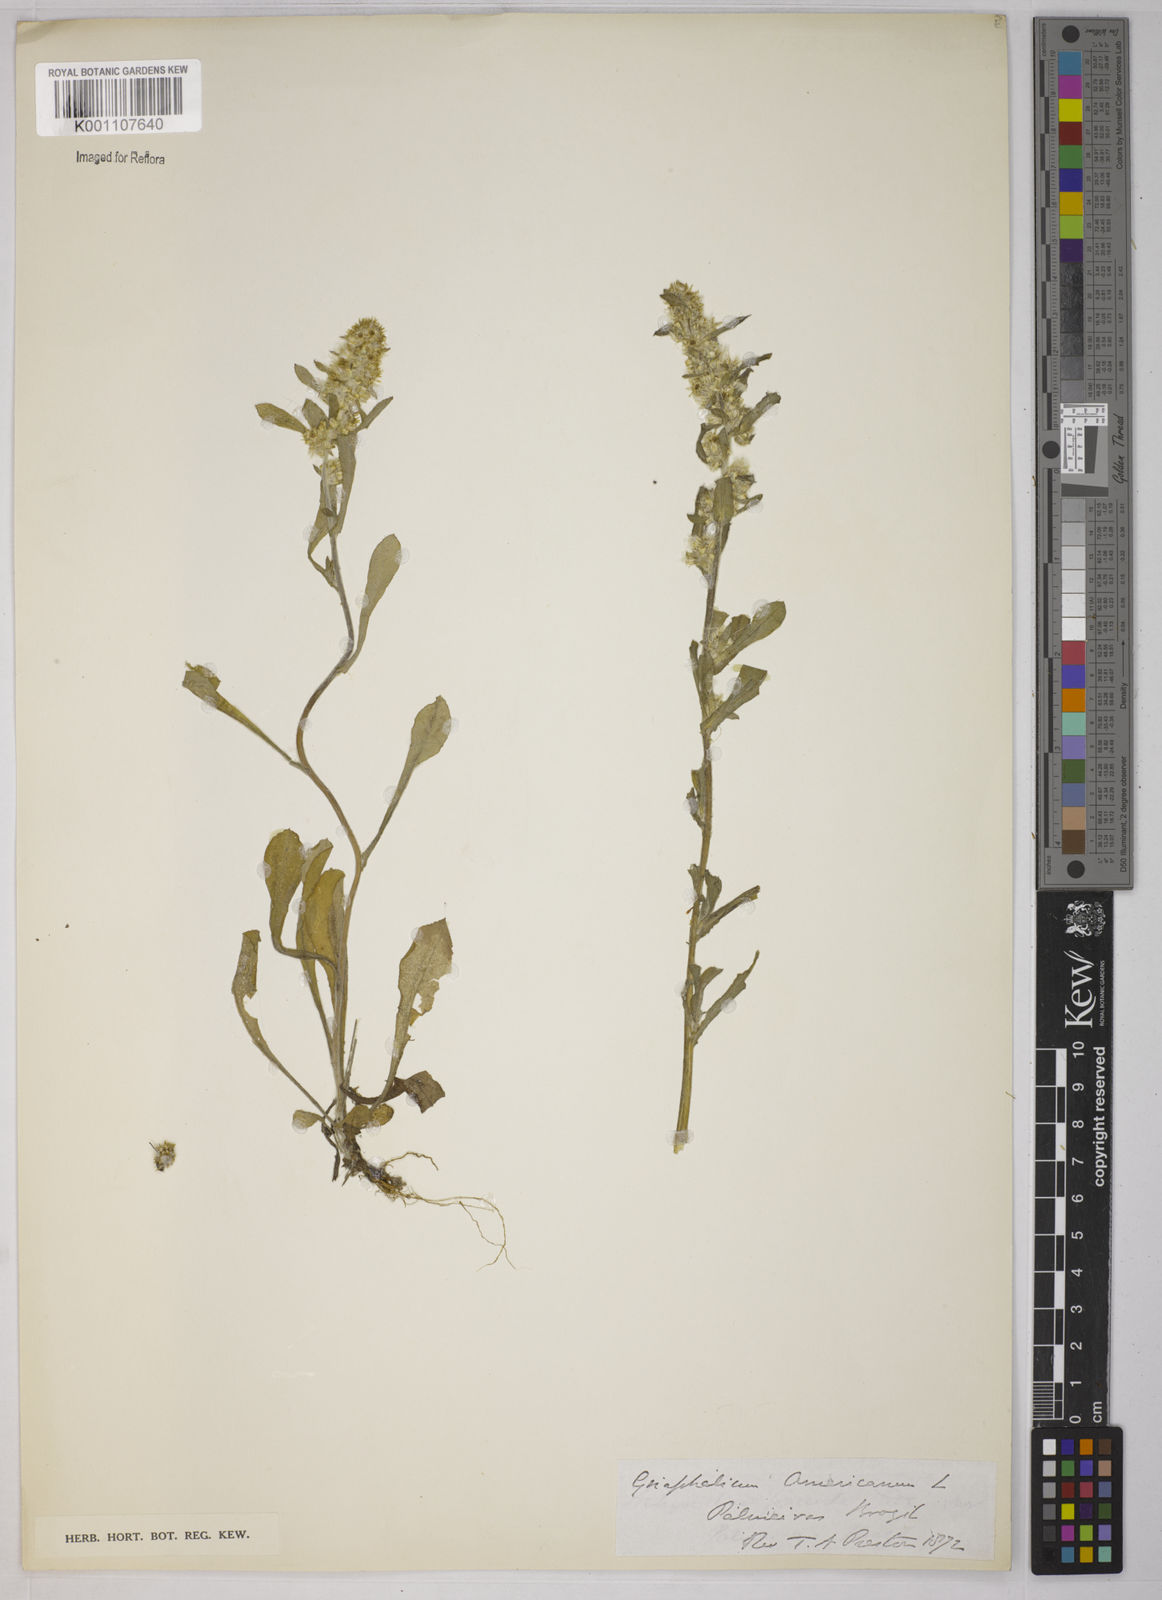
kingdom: Plantae
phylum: Tracheophyta
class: Magnoliopsida
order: Asterales
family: Asteraceae
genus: Gamochaeta
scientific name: Gamochaeta americana
